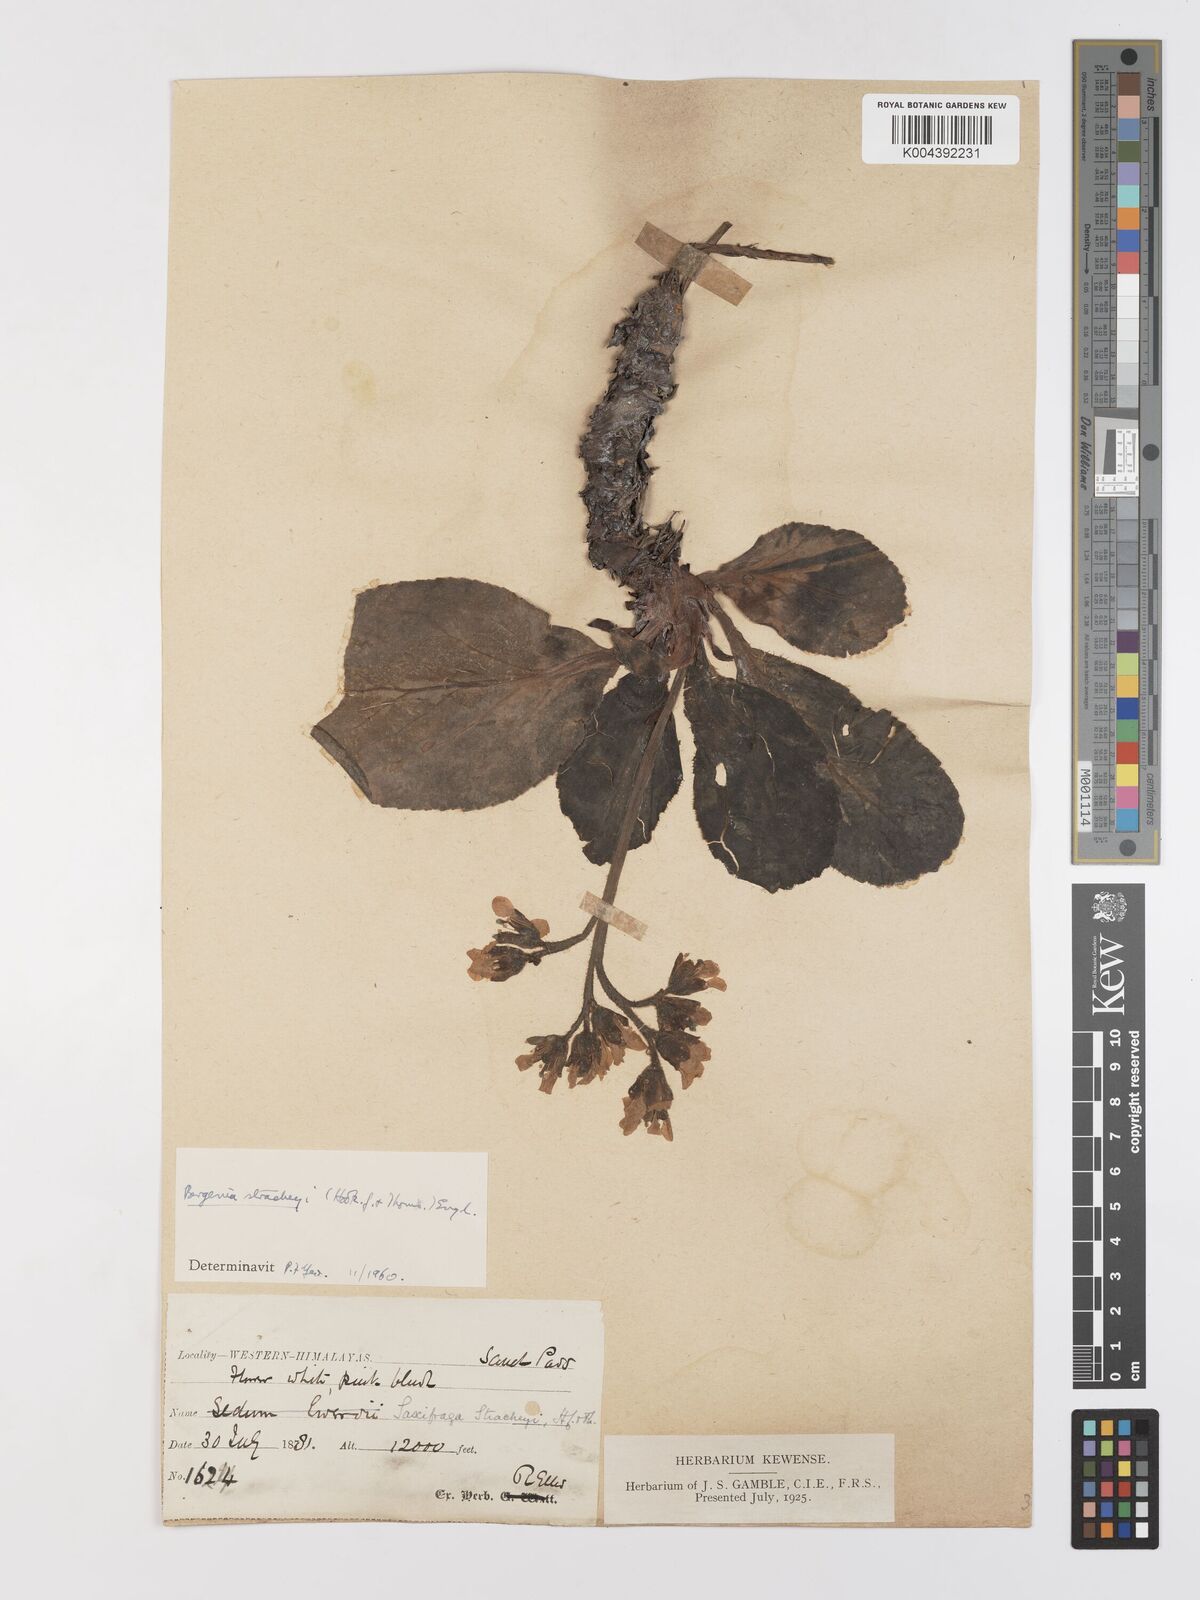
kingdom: Plantae
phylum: Tracheophyta
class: Magnoliopsida
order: Saxifragales
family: Saxifragaceae
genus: Bergenia
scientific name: Bergenia stracheyi
